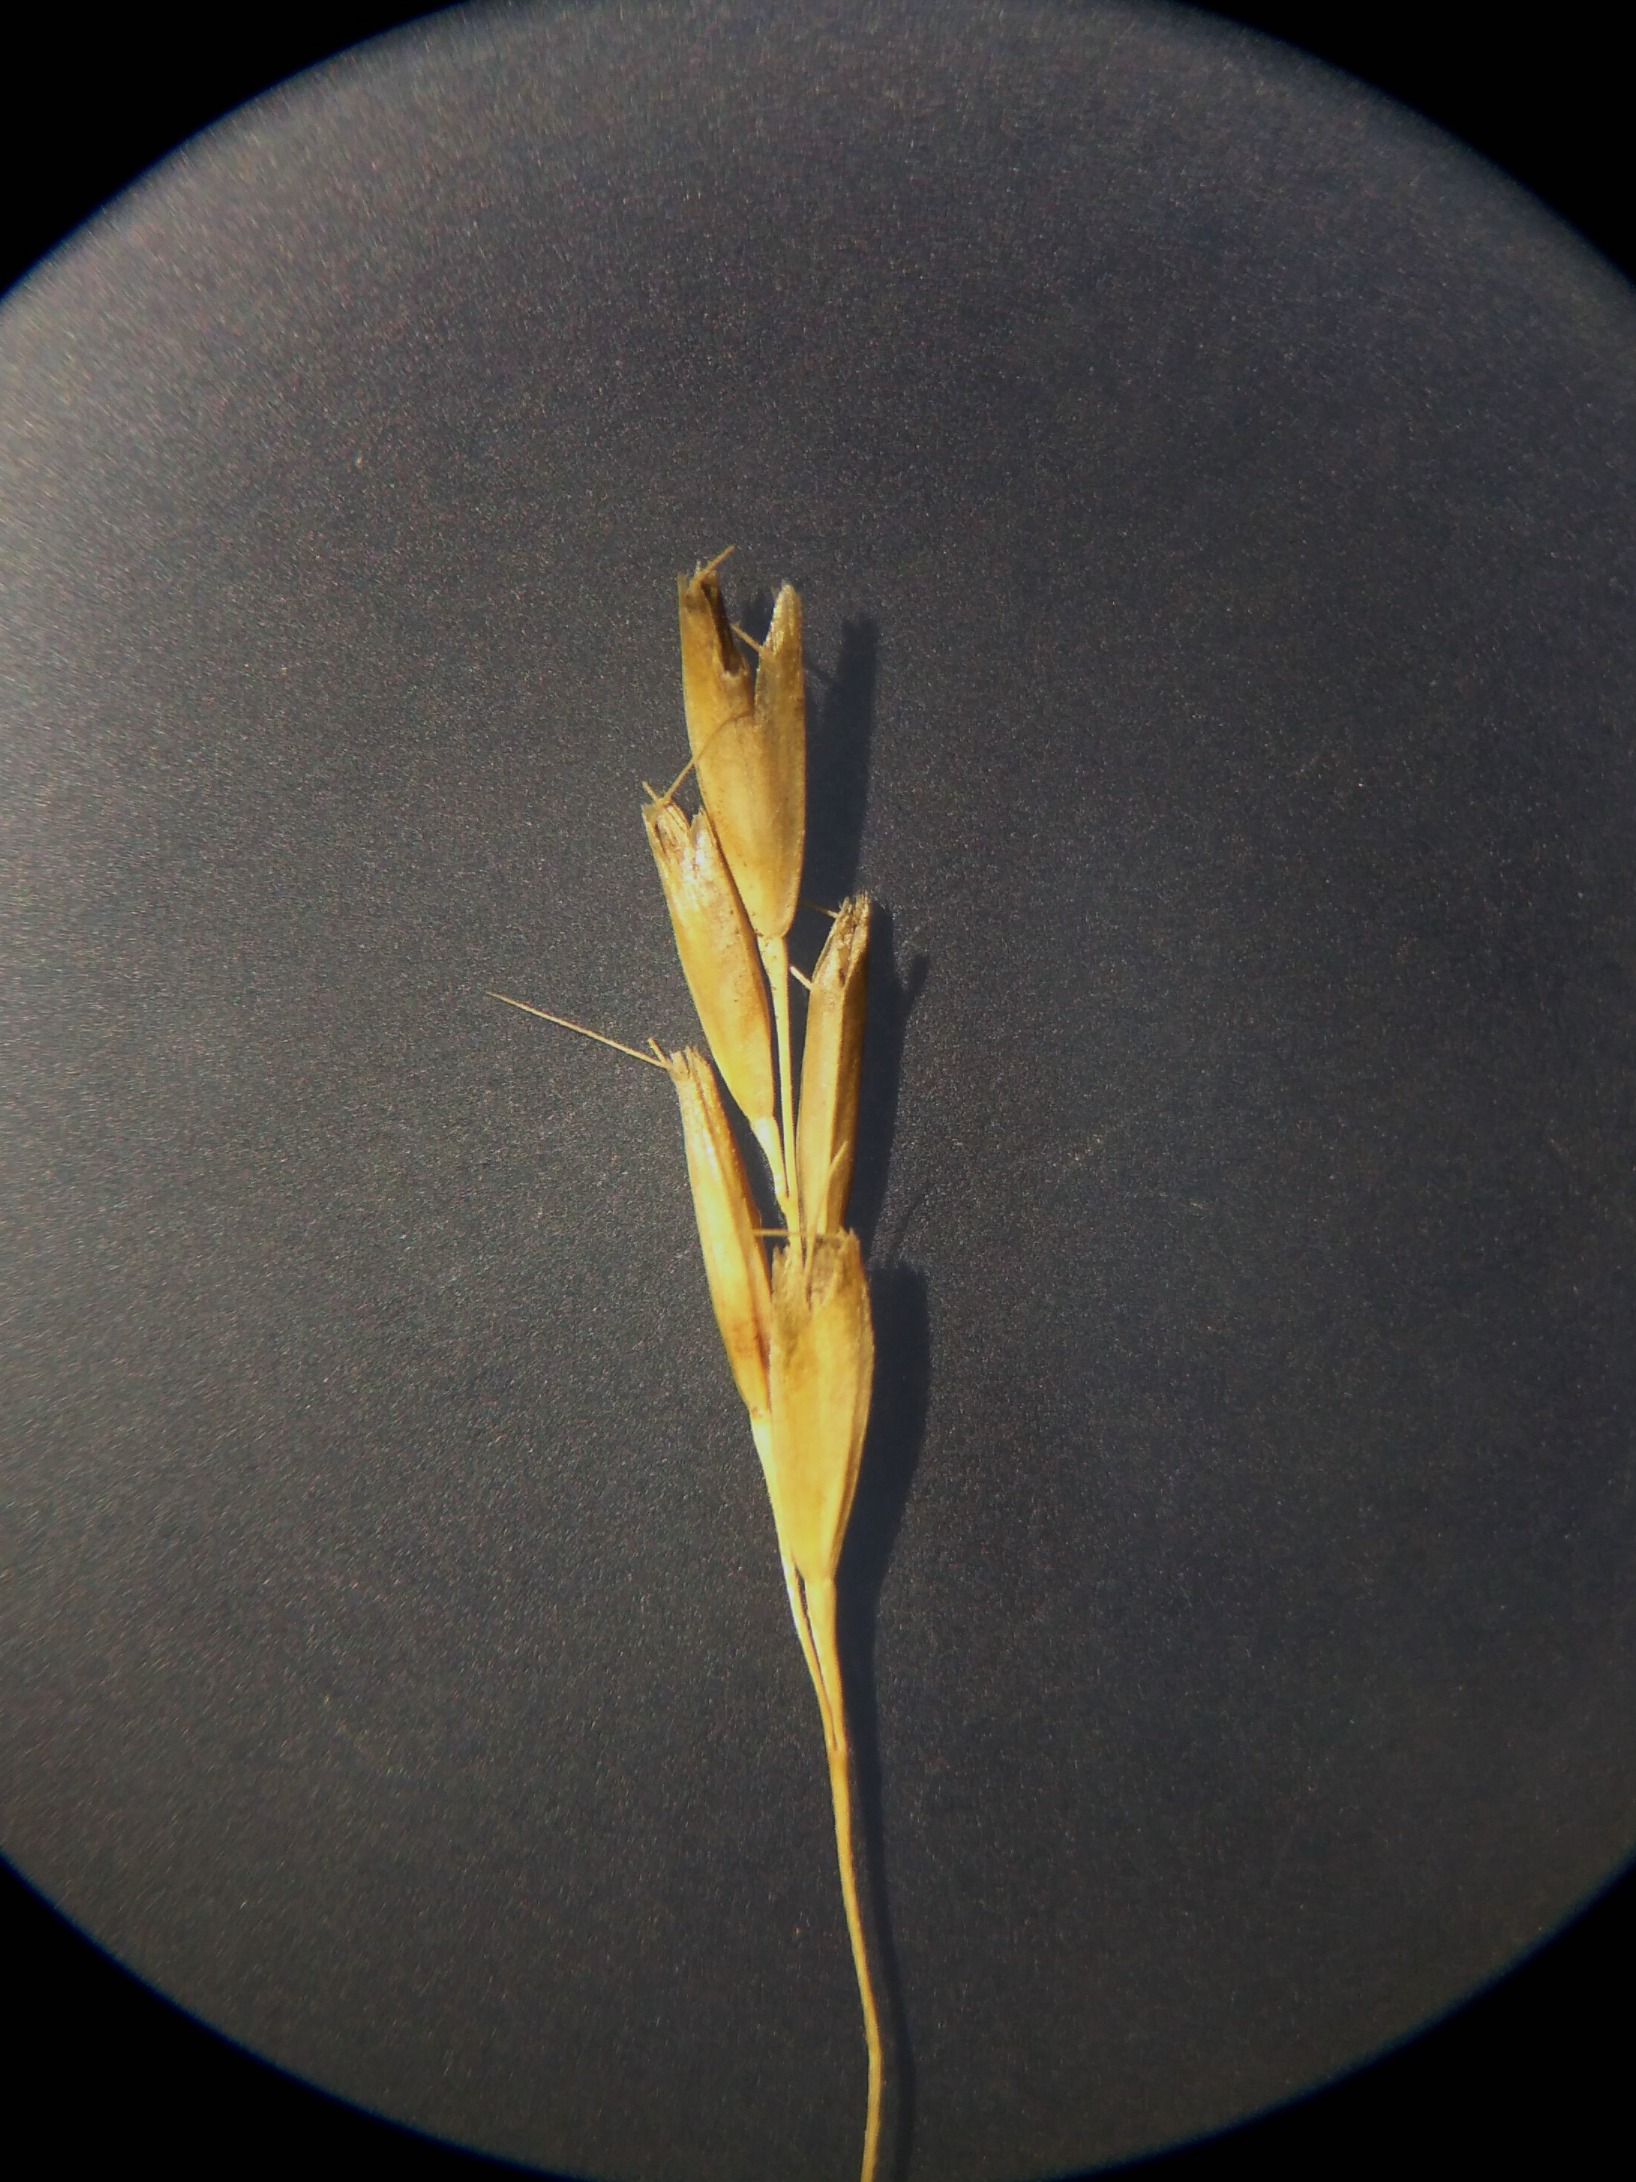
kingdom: Plantae
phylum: Tracheophyta
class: Liliopsida
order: Poales
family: Poaceae
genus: Deschampsia
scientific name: Deschampsia setacea
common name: Fin bunke
